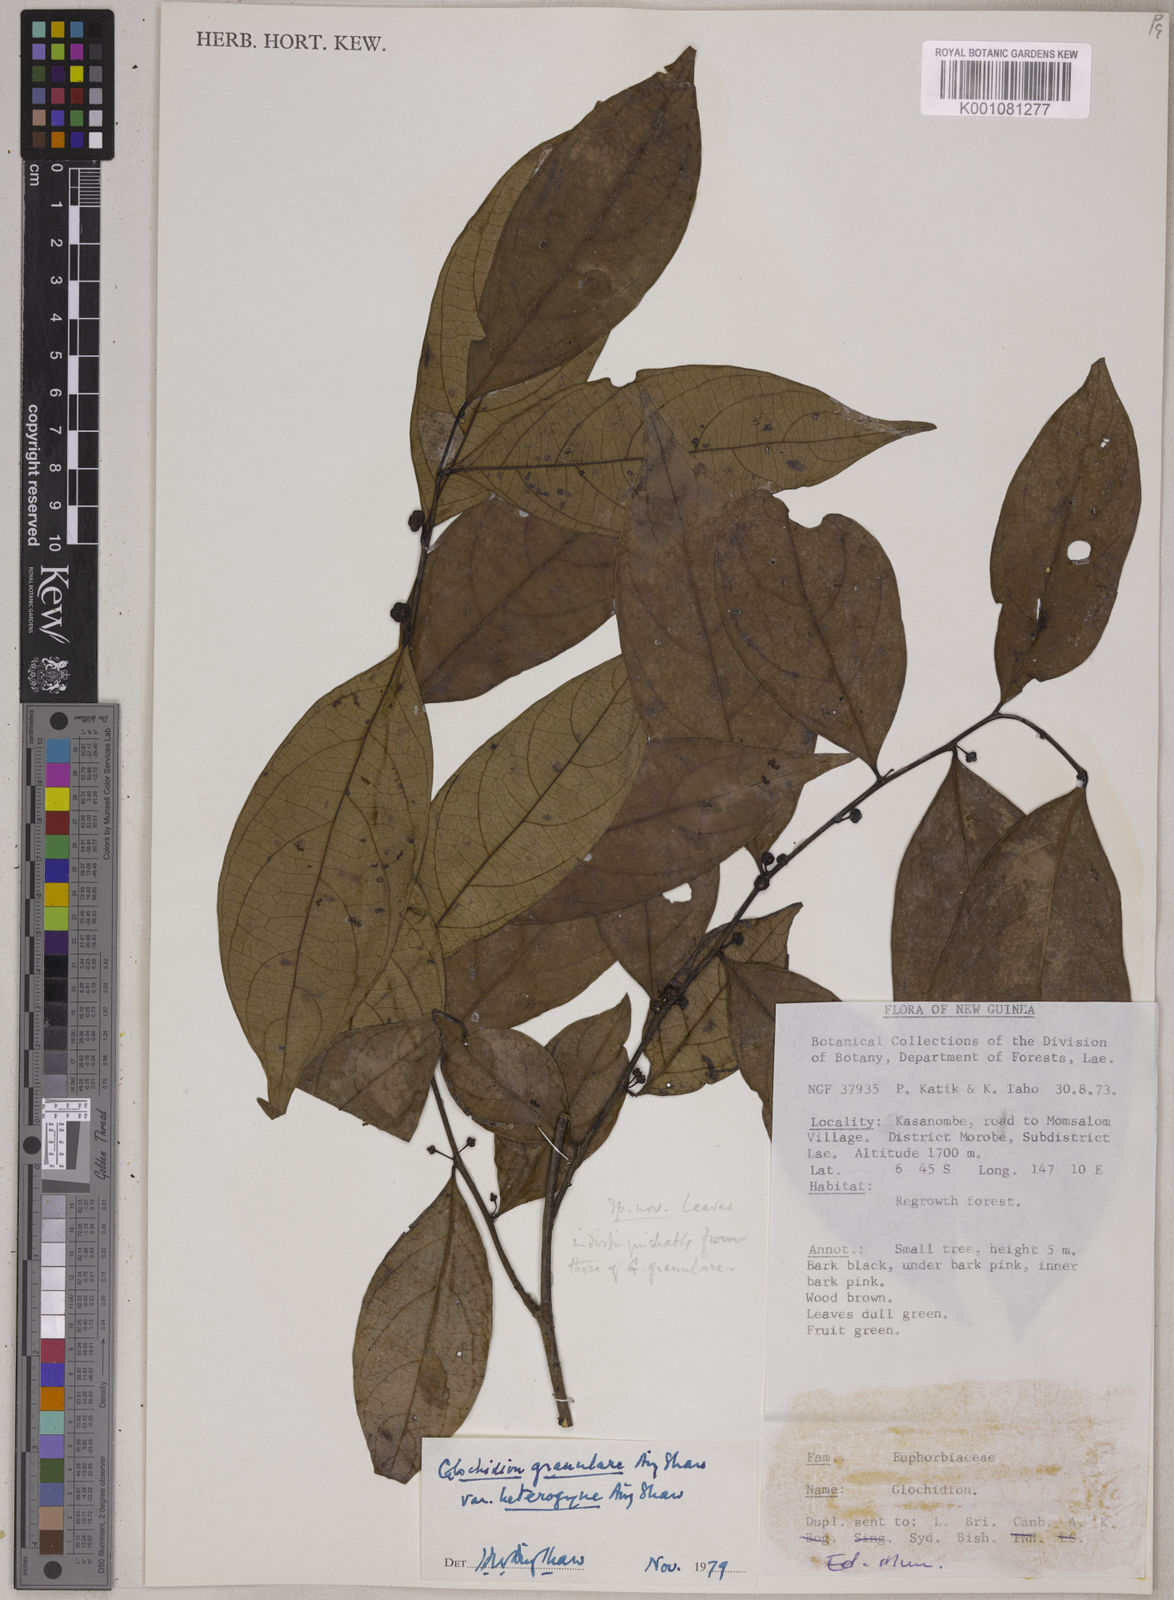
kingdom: Plantae
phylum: Tracheophyta
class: Magnoliopsida
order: Malpighiales
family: Phyllanthaceae
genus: Glochidion
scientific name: Glochidion granulare
